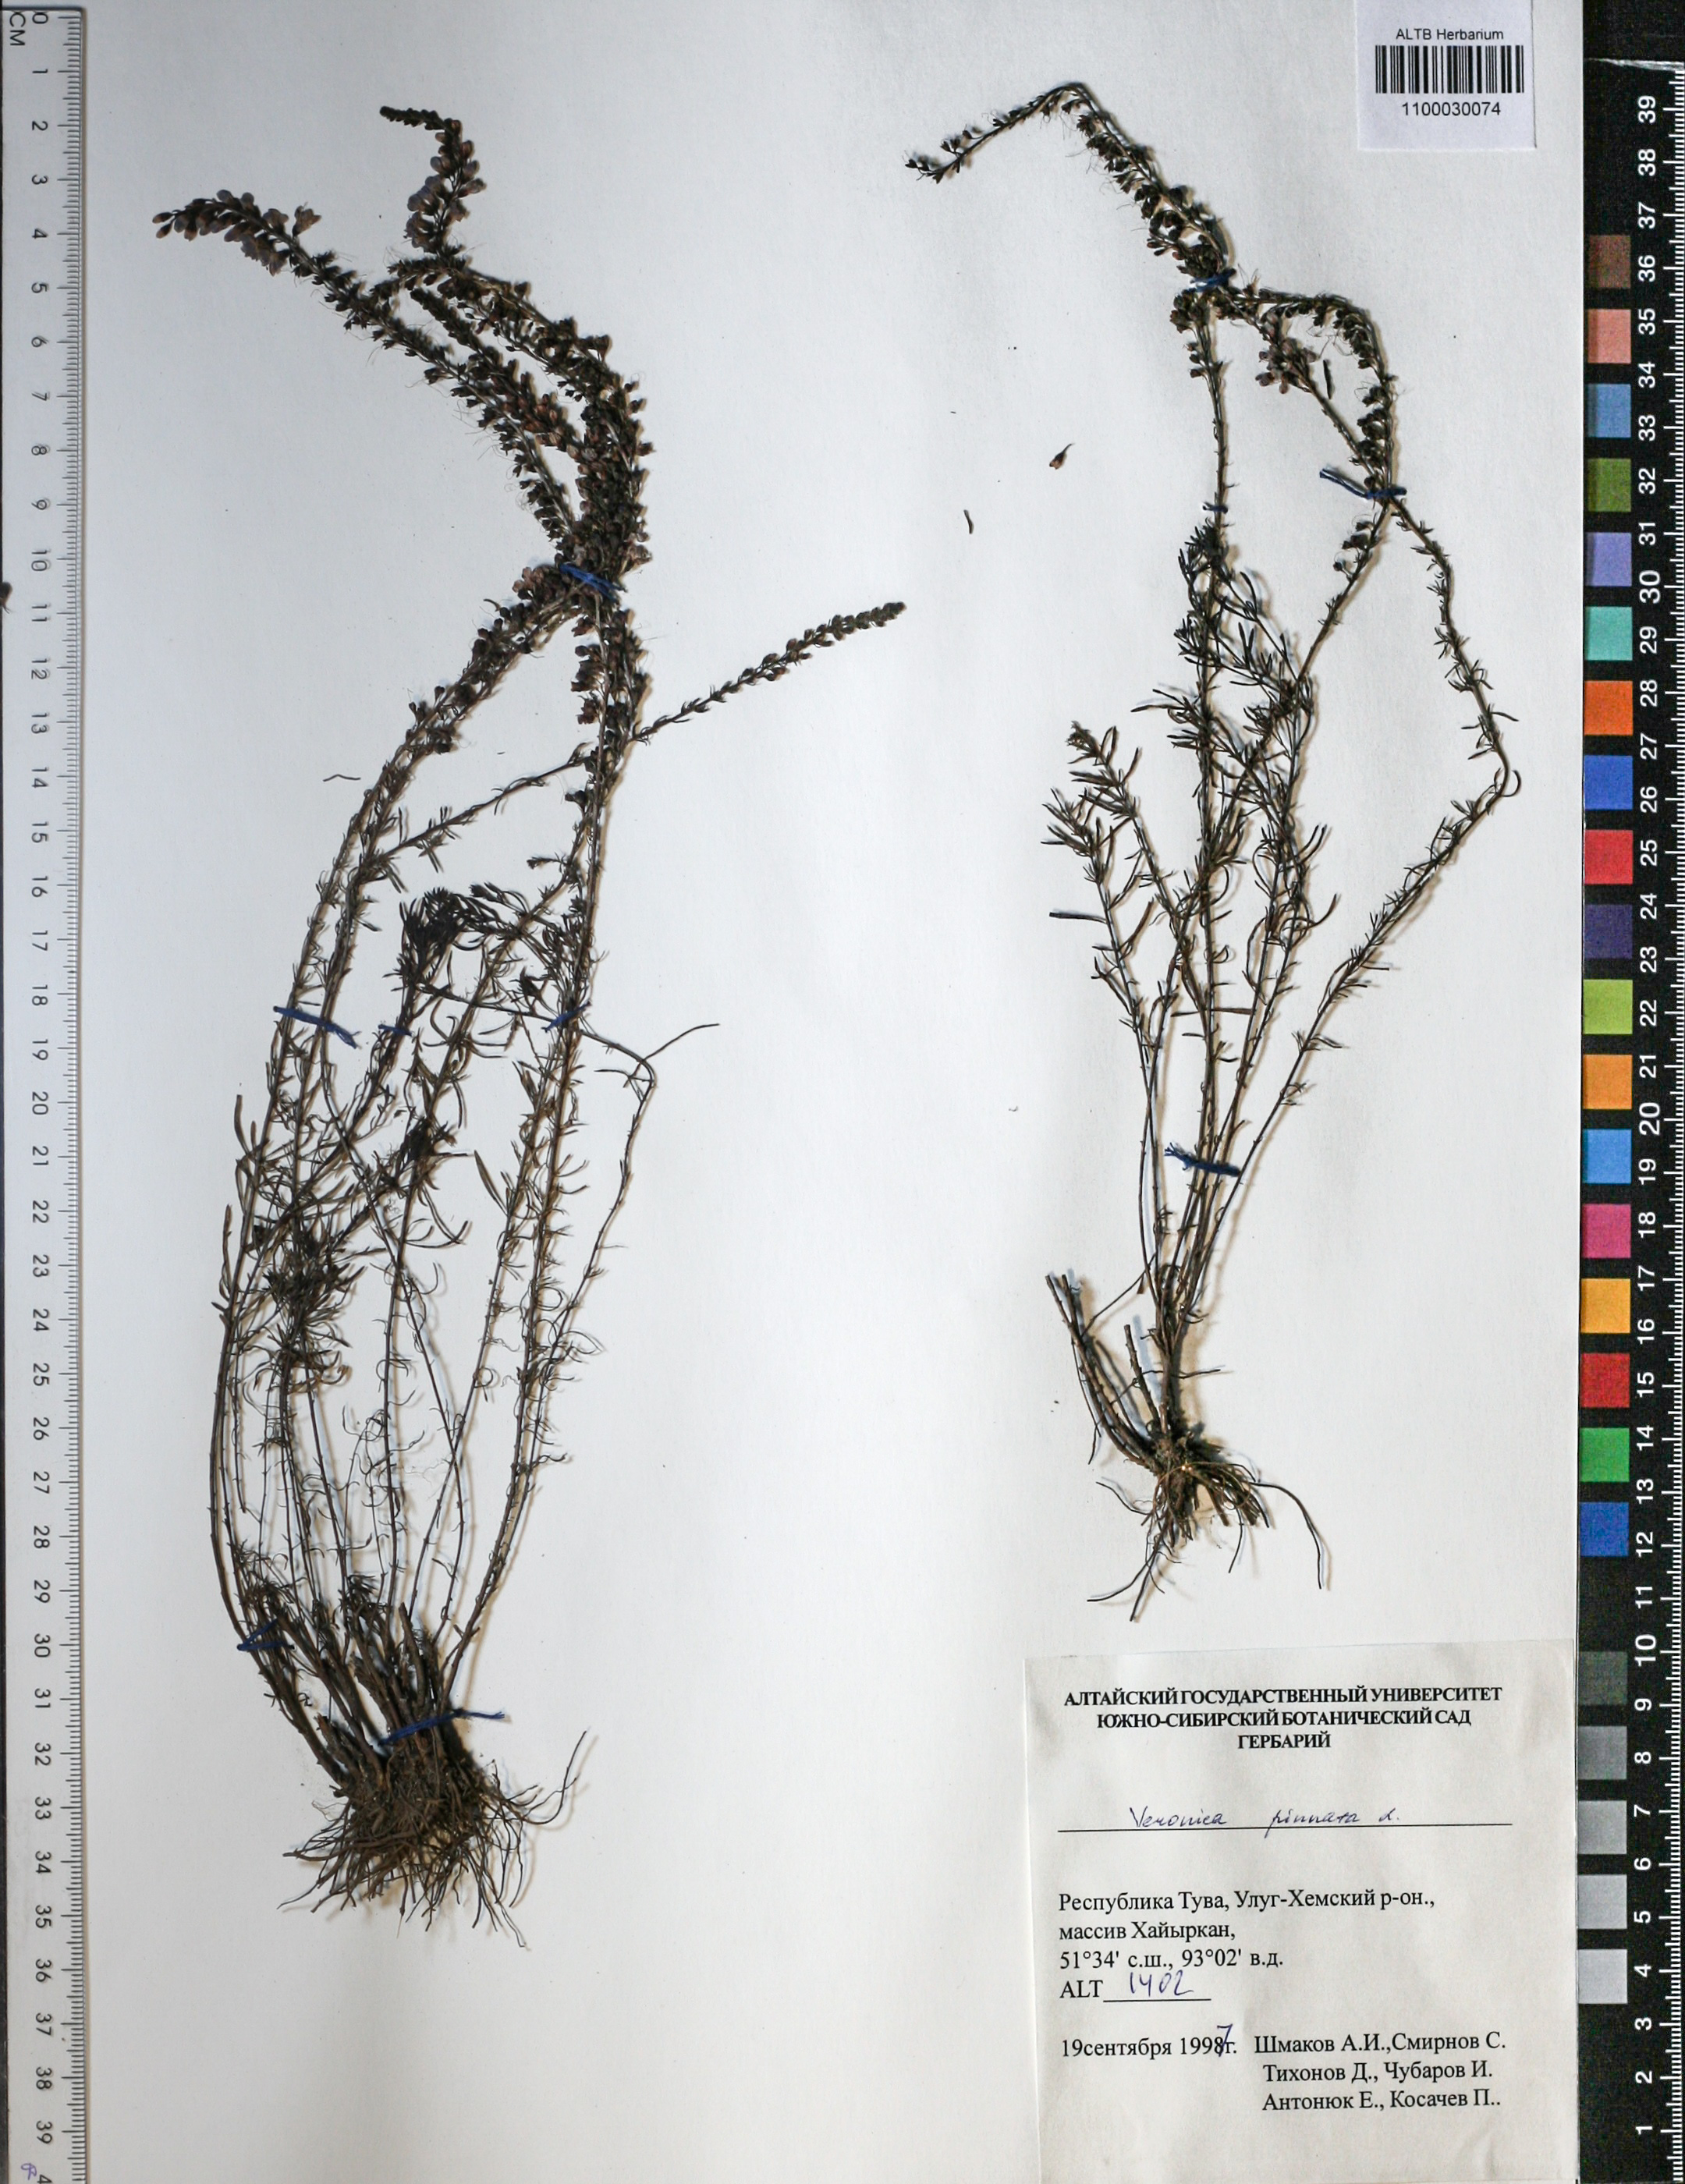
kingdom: Plantae
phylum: Tracheophyta
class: Magnoliopsida
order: Lamiales
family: Plantaginaceae
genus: Veronica
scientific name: Veronica pinnata
